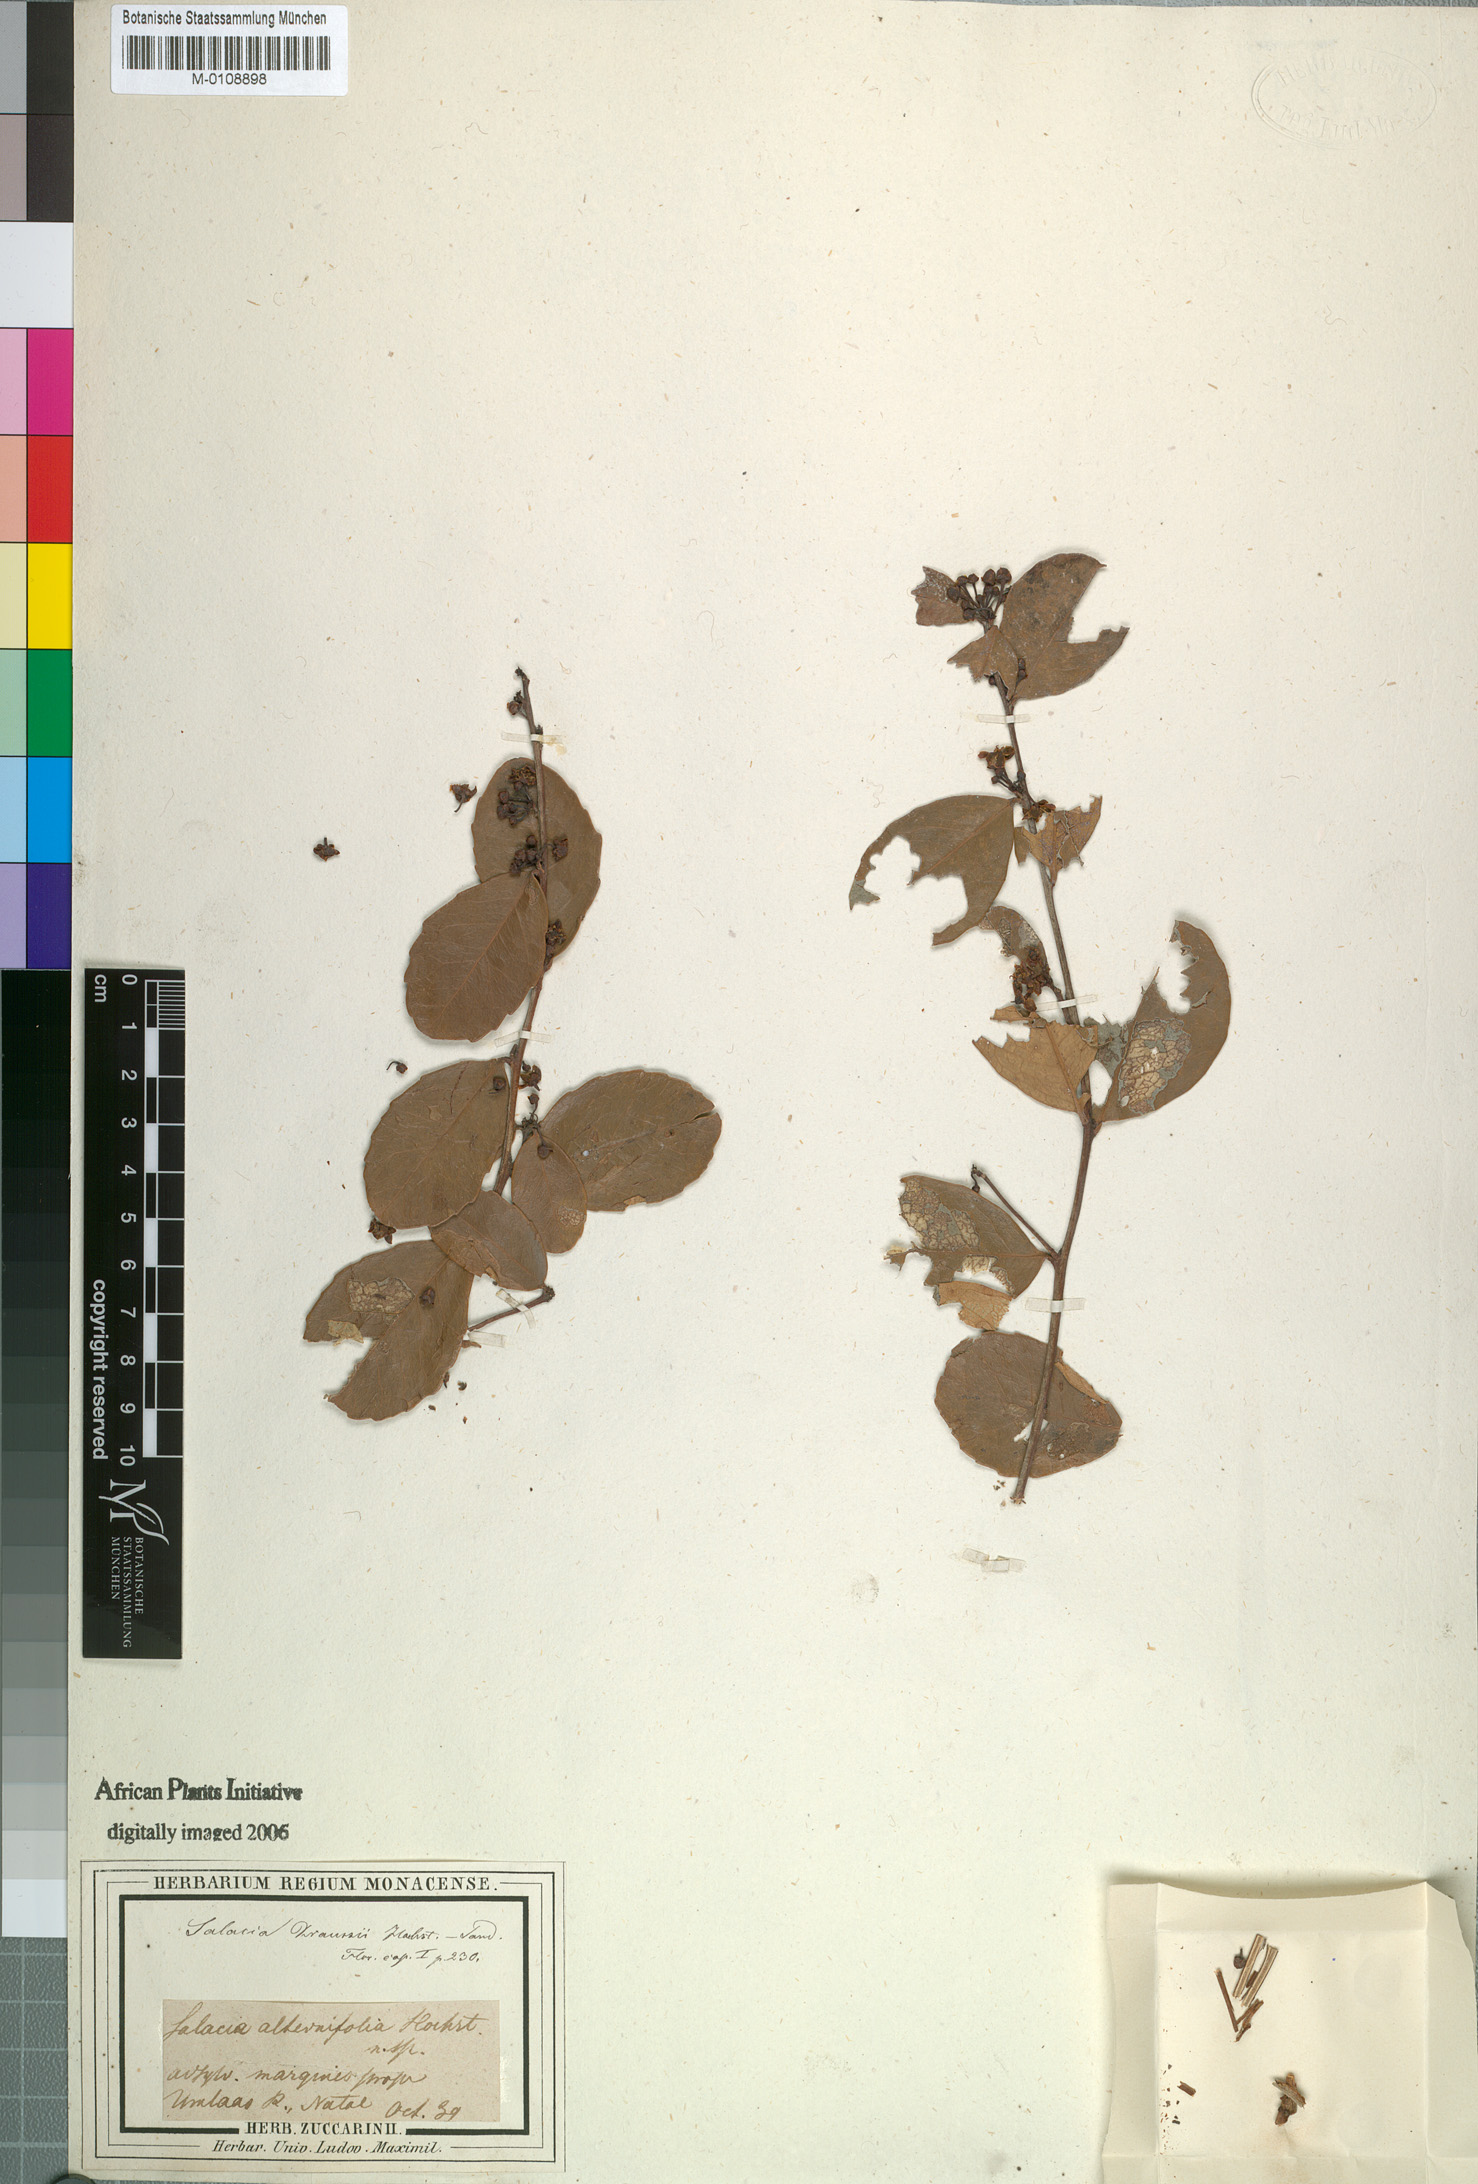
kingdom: Plantae
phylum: Tracheophyta
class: Magnoliopsida
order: Celastrales
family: Celastraceae
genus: Salacia
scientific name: Salacia kraussii
